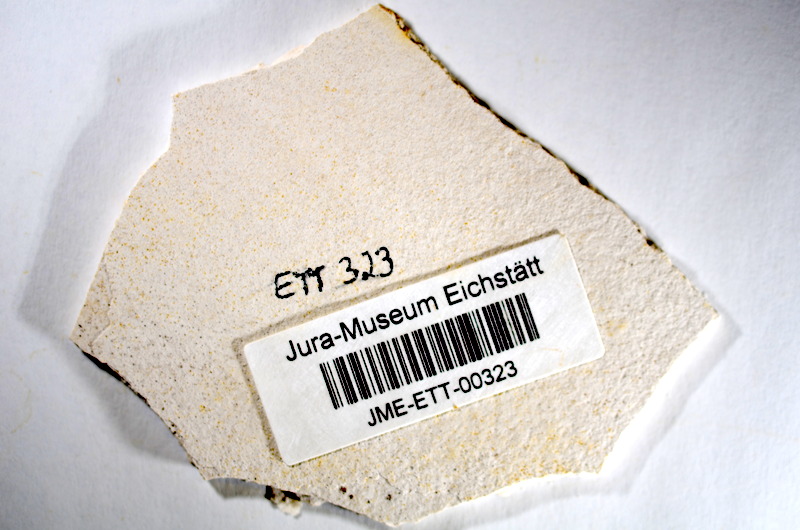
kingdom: Animalia
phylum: Chordata
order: Salmoniformes
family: Orthogonikleithridae
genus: Orthogonikleithrus
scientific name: Orthogonikleithrus hoelli
